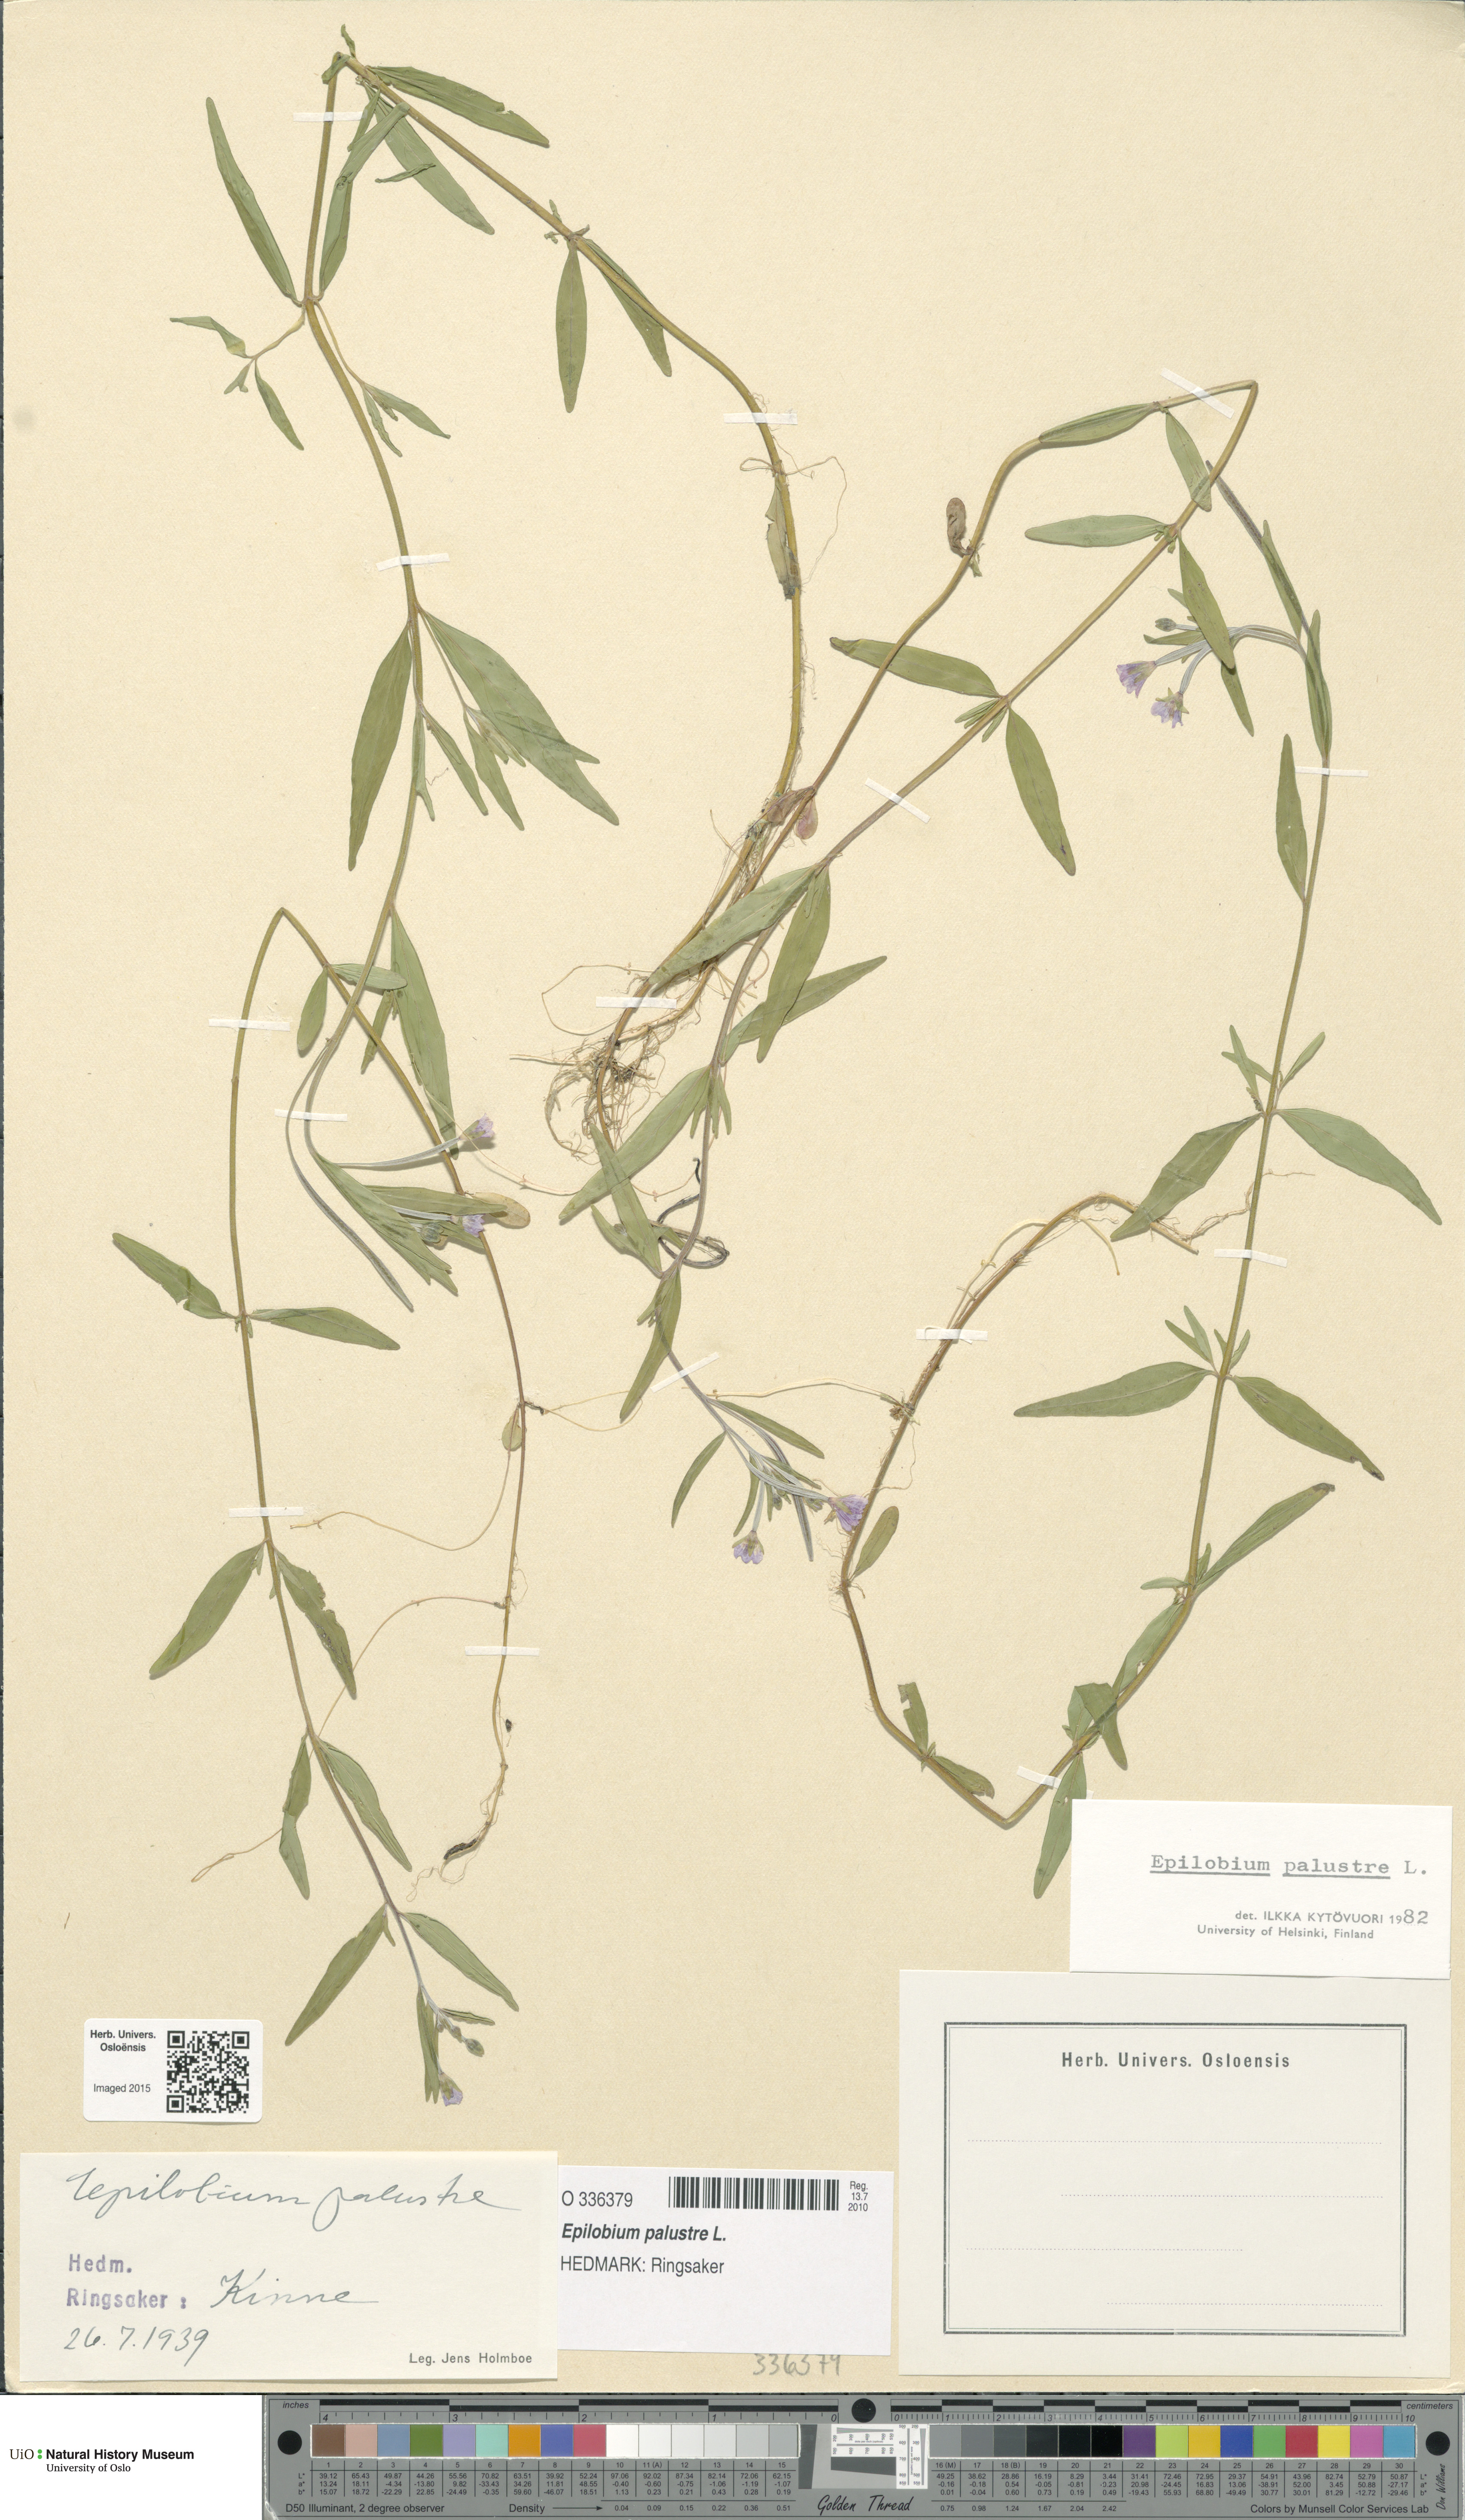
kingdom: Plantae
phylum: Tracheophyta
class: Magnoliopsida
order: Myrtales
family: Onagraceae
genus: Epilobium
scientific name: Epilobium palustre
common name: Marsh willowherb
